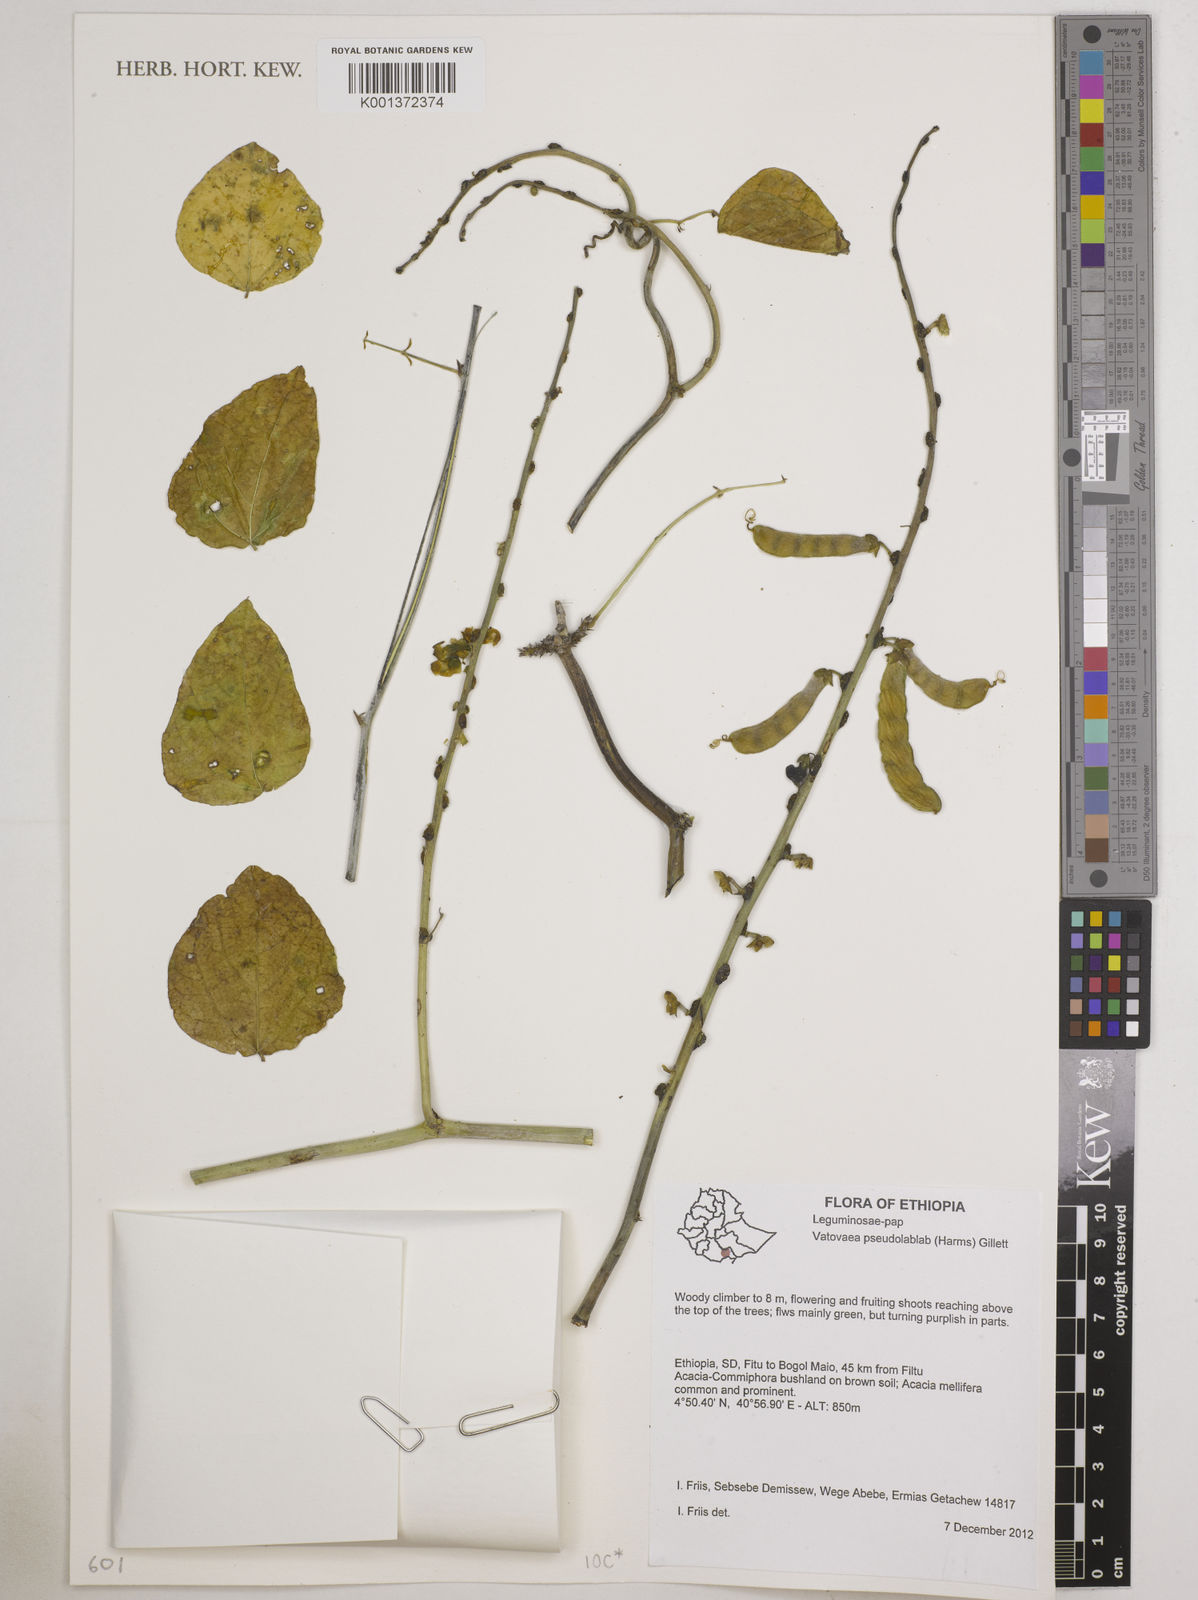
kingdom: Plantae
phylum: Tracheophyta
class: Magnoliopsida
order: Fabales
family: Fabaceae
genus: Vatovaea
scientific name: Vatovaea pseudolablab
